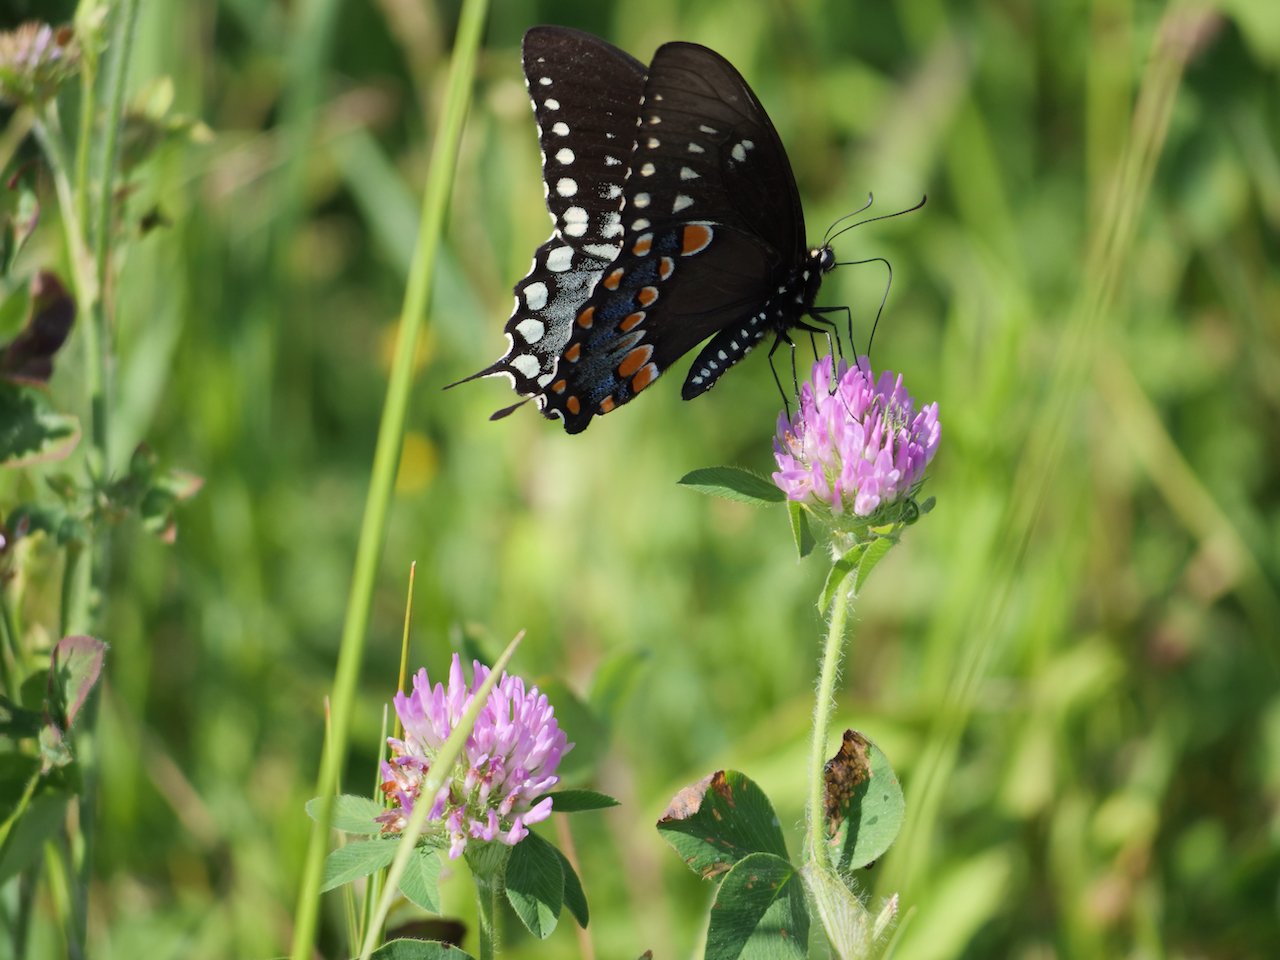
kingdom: Animalia
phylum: Arthropoda
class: Insecta
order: Lepidoptera
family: Papilionidae
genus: Pterourus
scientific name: Pterourus troilus
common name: Spicebush Swallowtail
